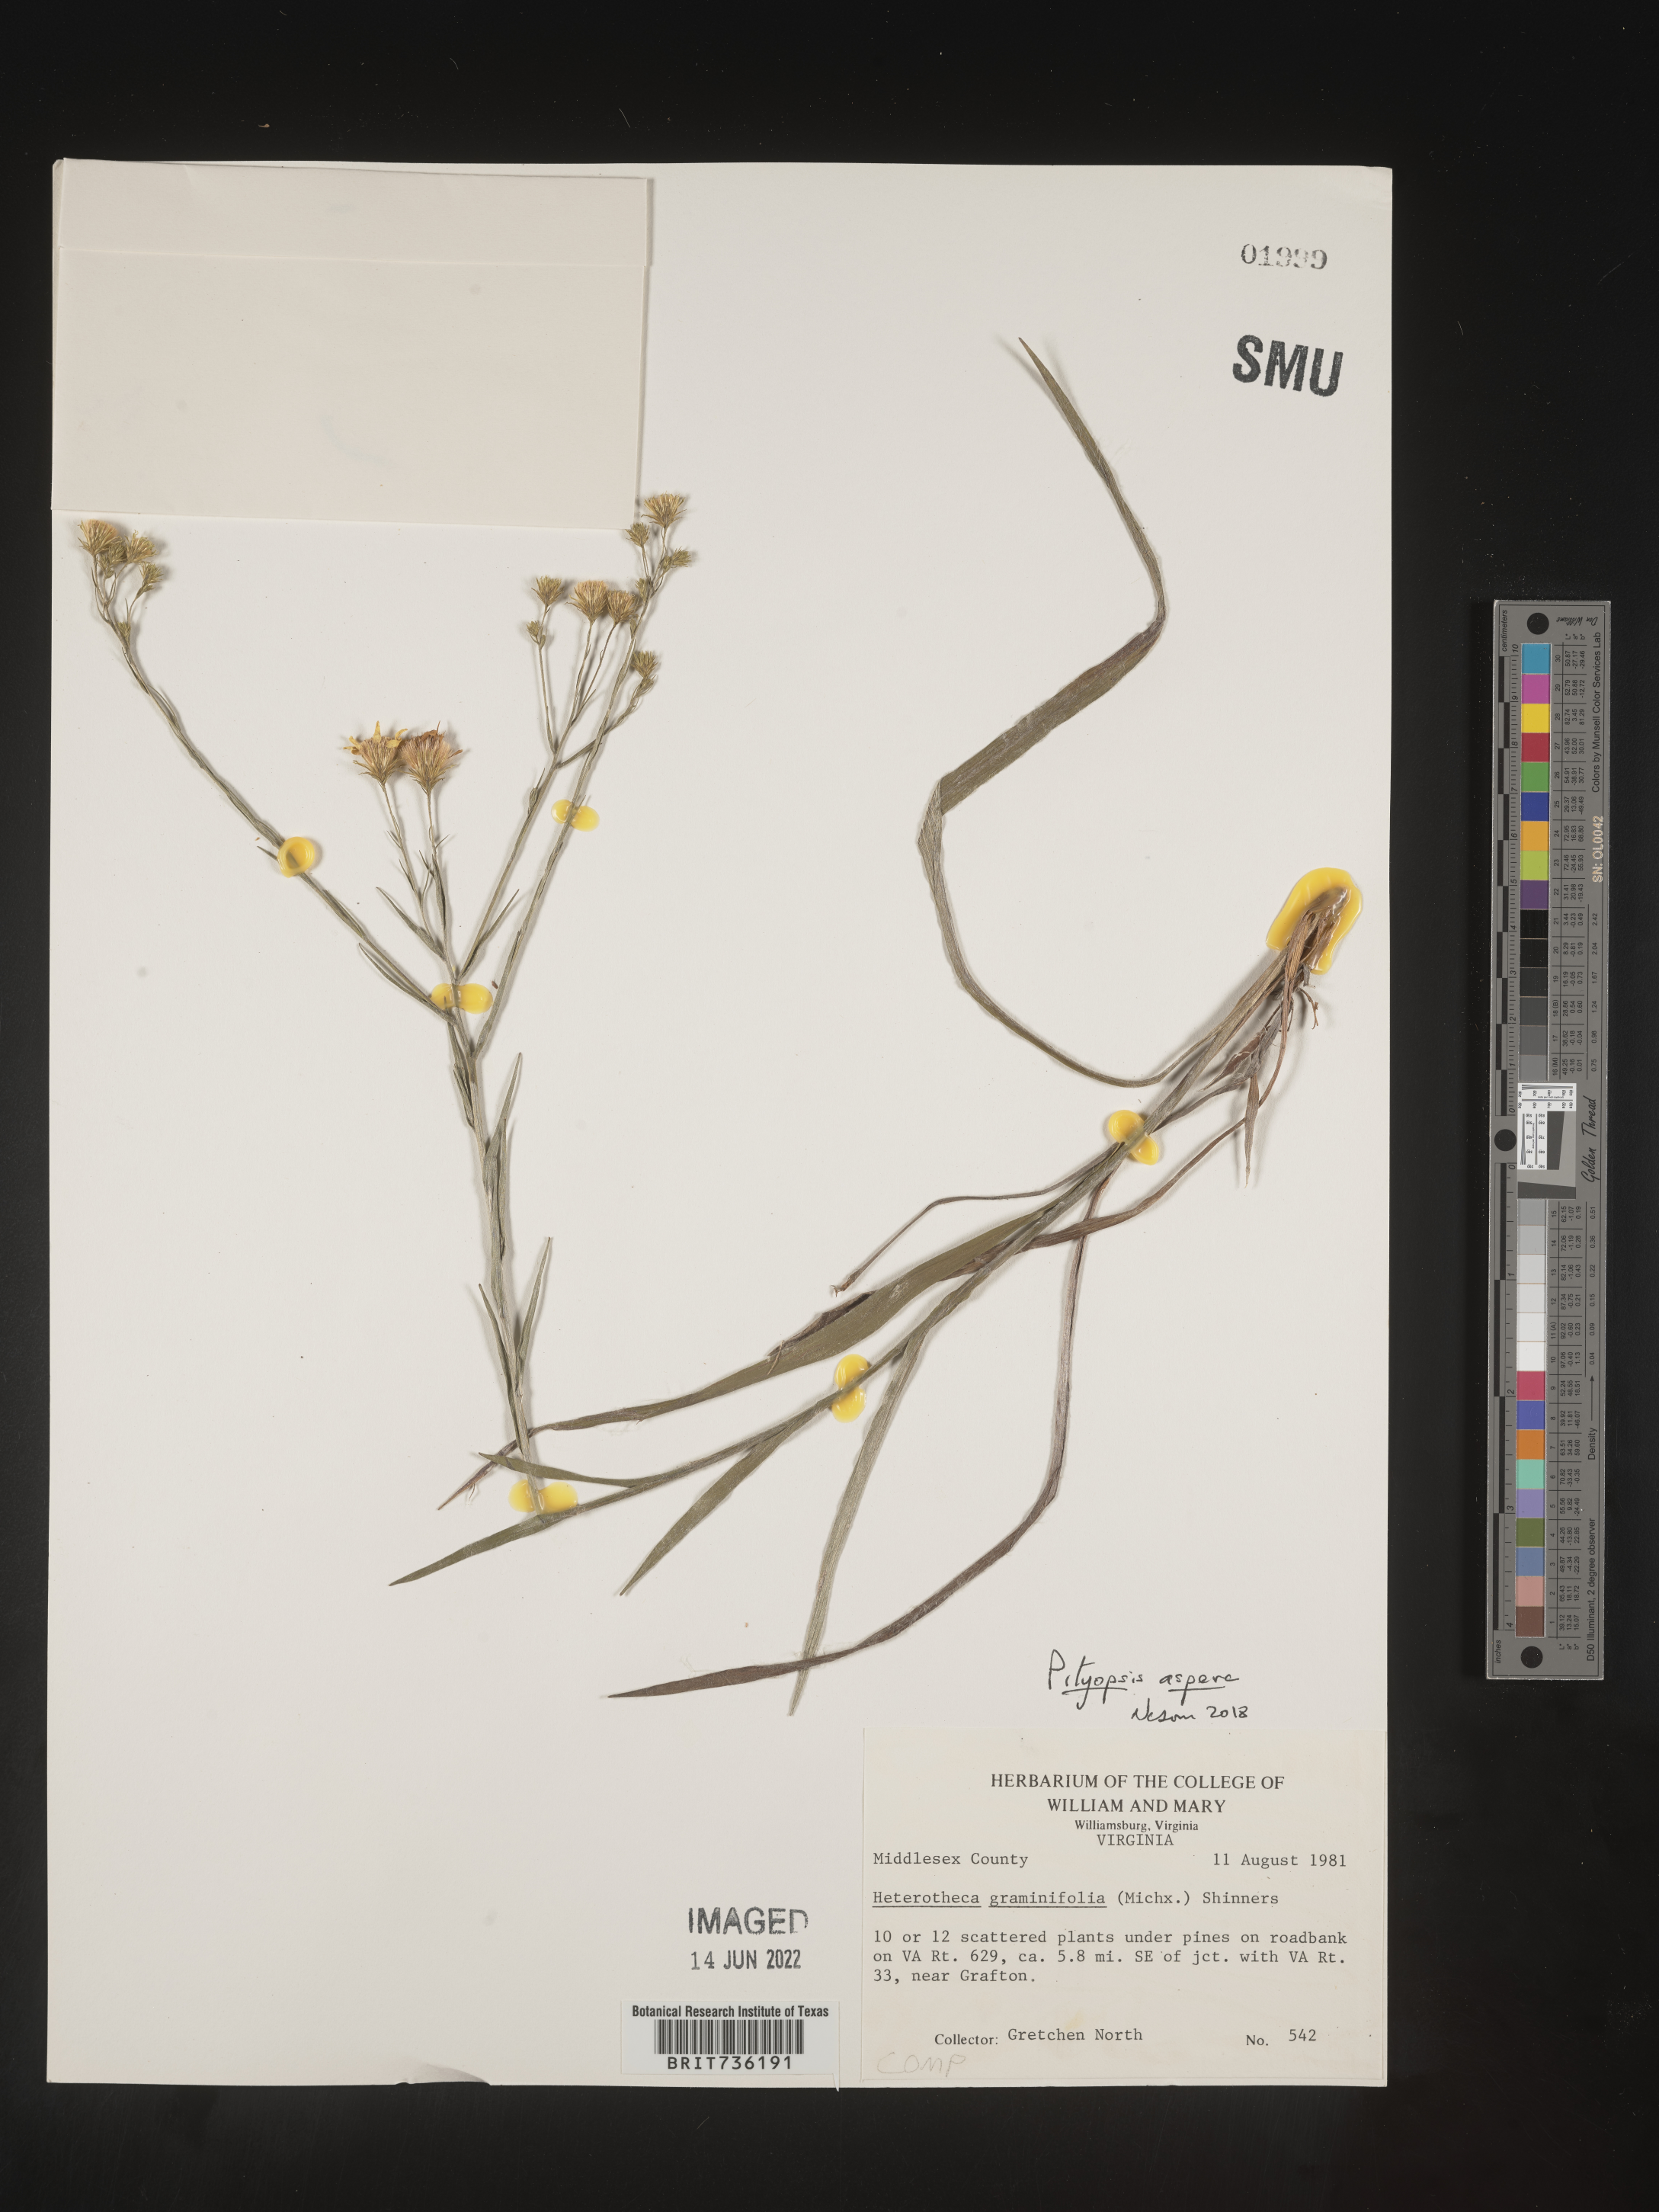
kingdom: Plantae
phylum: Tracheophyta
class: Magnoliopsida
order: Asterales
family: Asteraceae
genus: Pityopsis
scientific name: Pityopsis aspera
